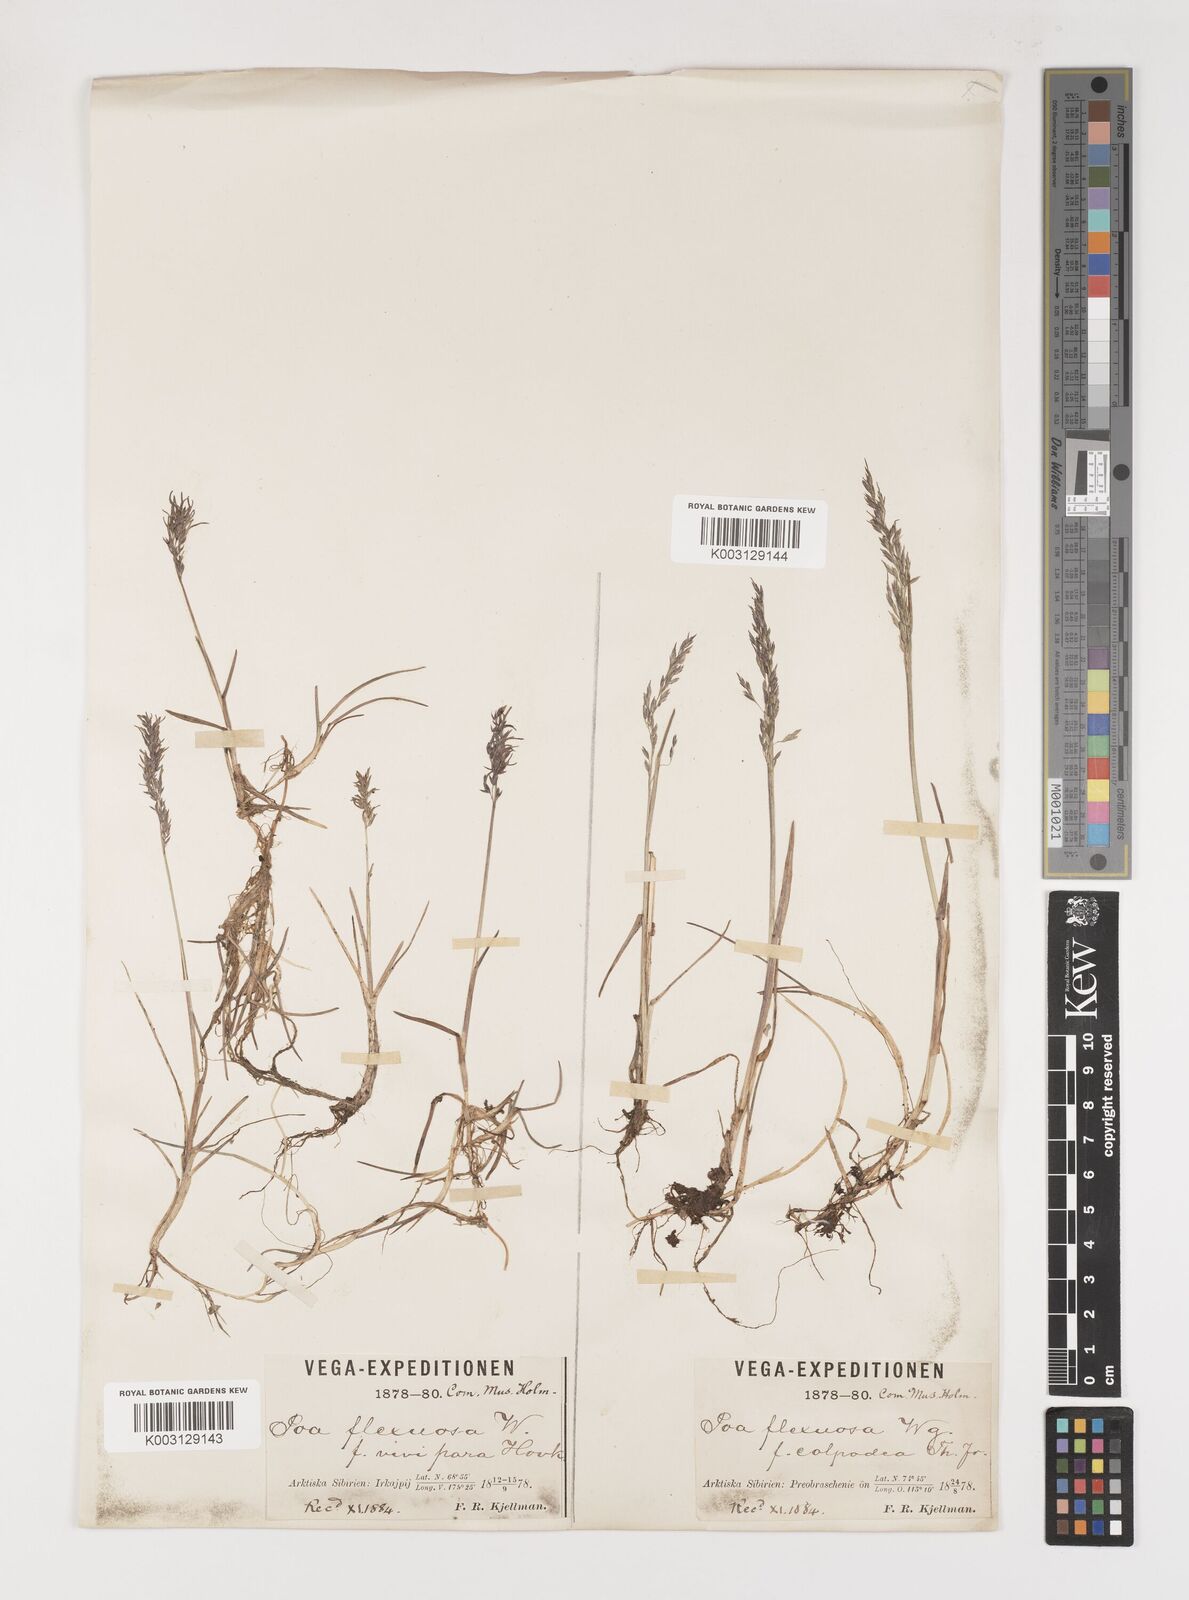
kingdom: Plantae
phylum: Tracheophyta
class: Liliopsida
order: Poales
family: Poaceae
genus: Poa
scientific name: Poa arctica
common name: Arctic bluegrass
